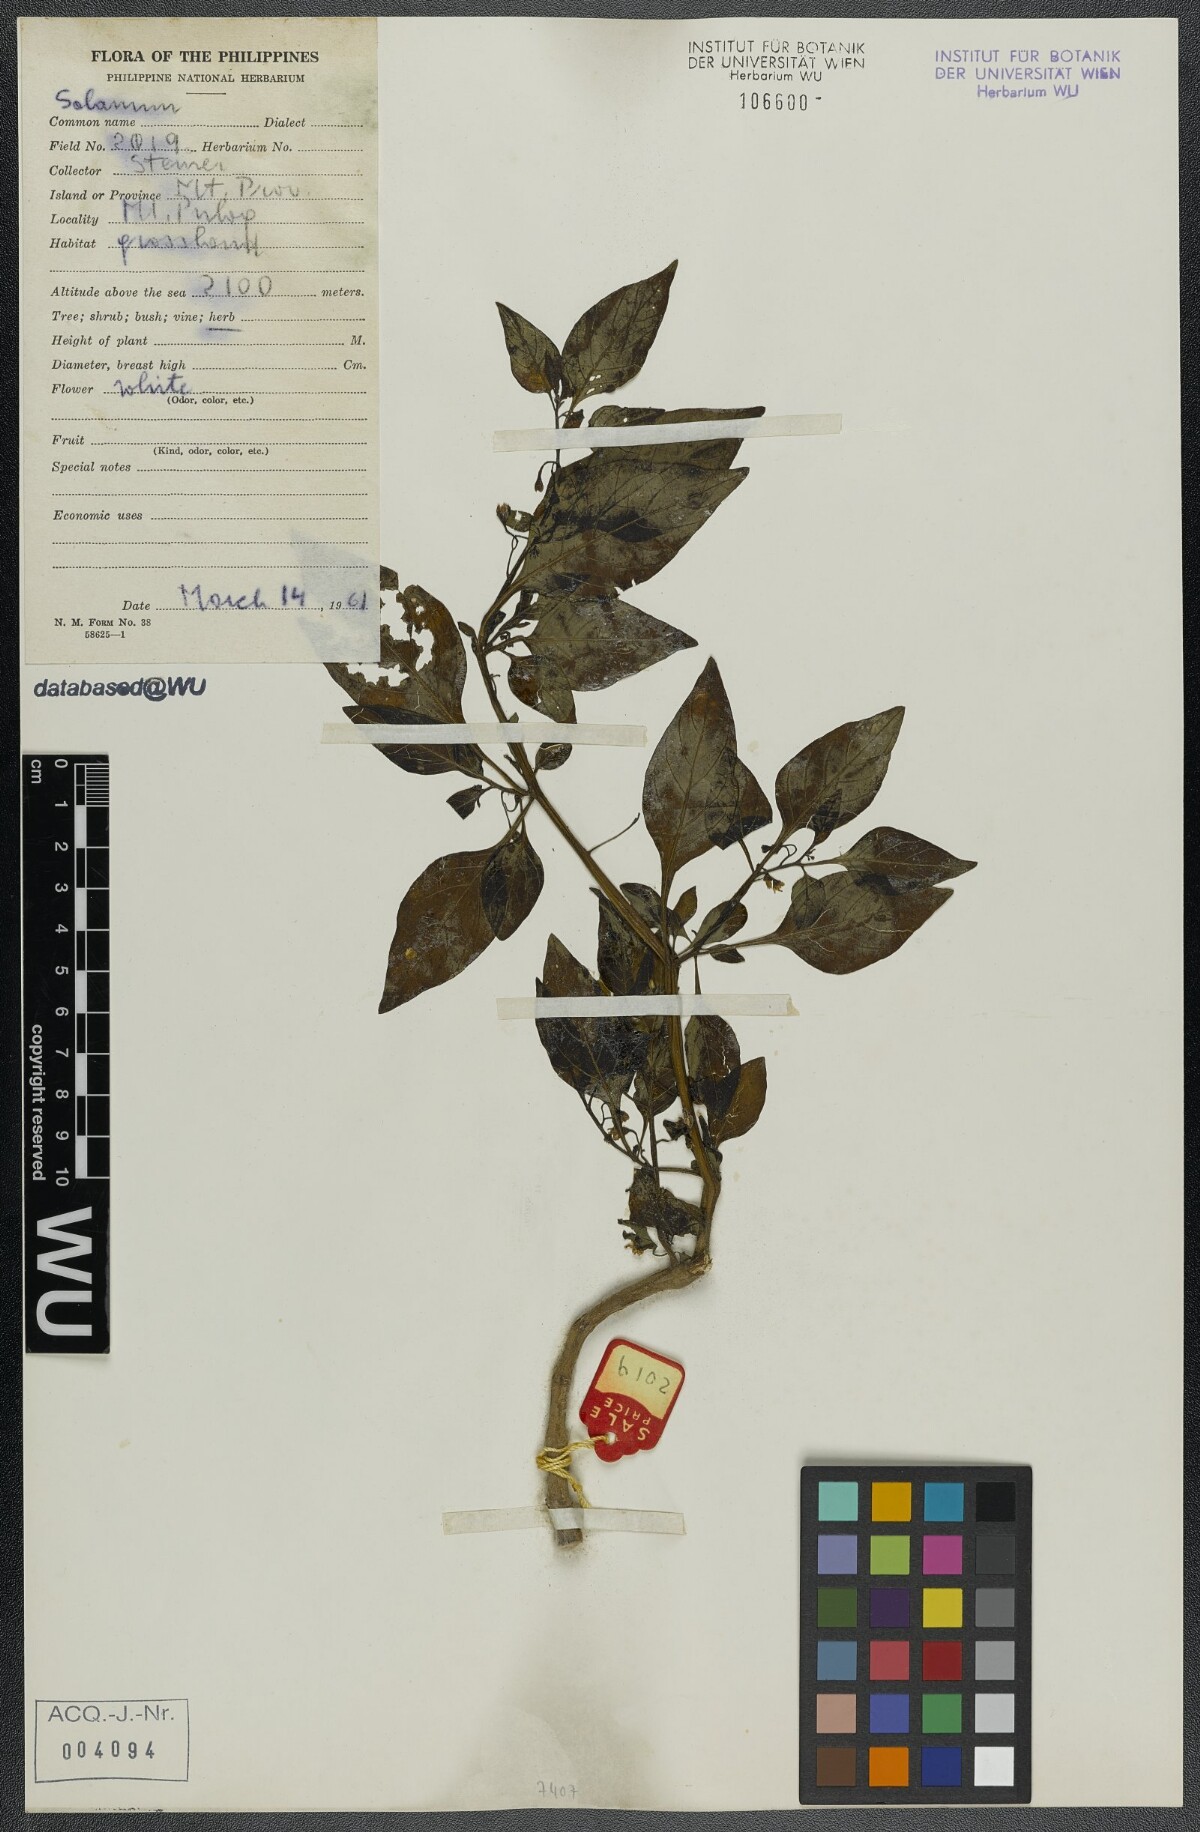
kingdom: Plantae
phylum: Tracheophyta
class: Magnoliopsida
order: Solanales
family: Solanaceae
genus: Solanum
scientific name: Solanum
